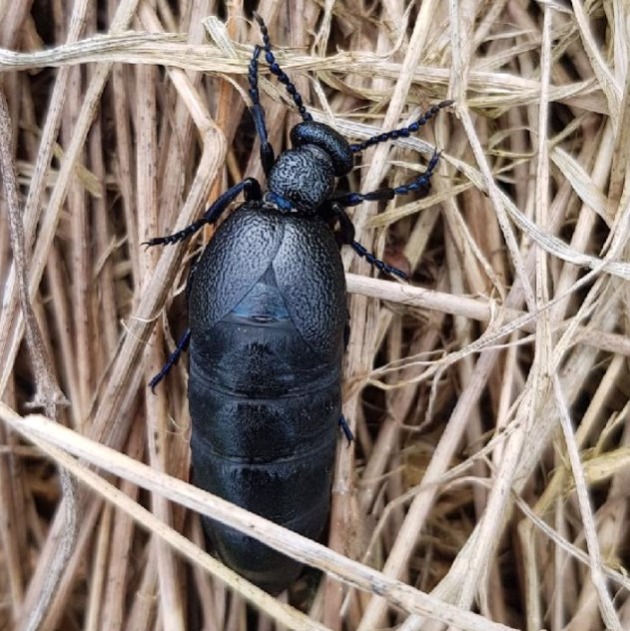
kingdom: Animalia
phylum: Arthropoda
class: Insecta
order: Coleoptera
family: Meloidae
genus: Meloe
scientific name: Meloe proscarabaeus
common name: Sort oliebille
